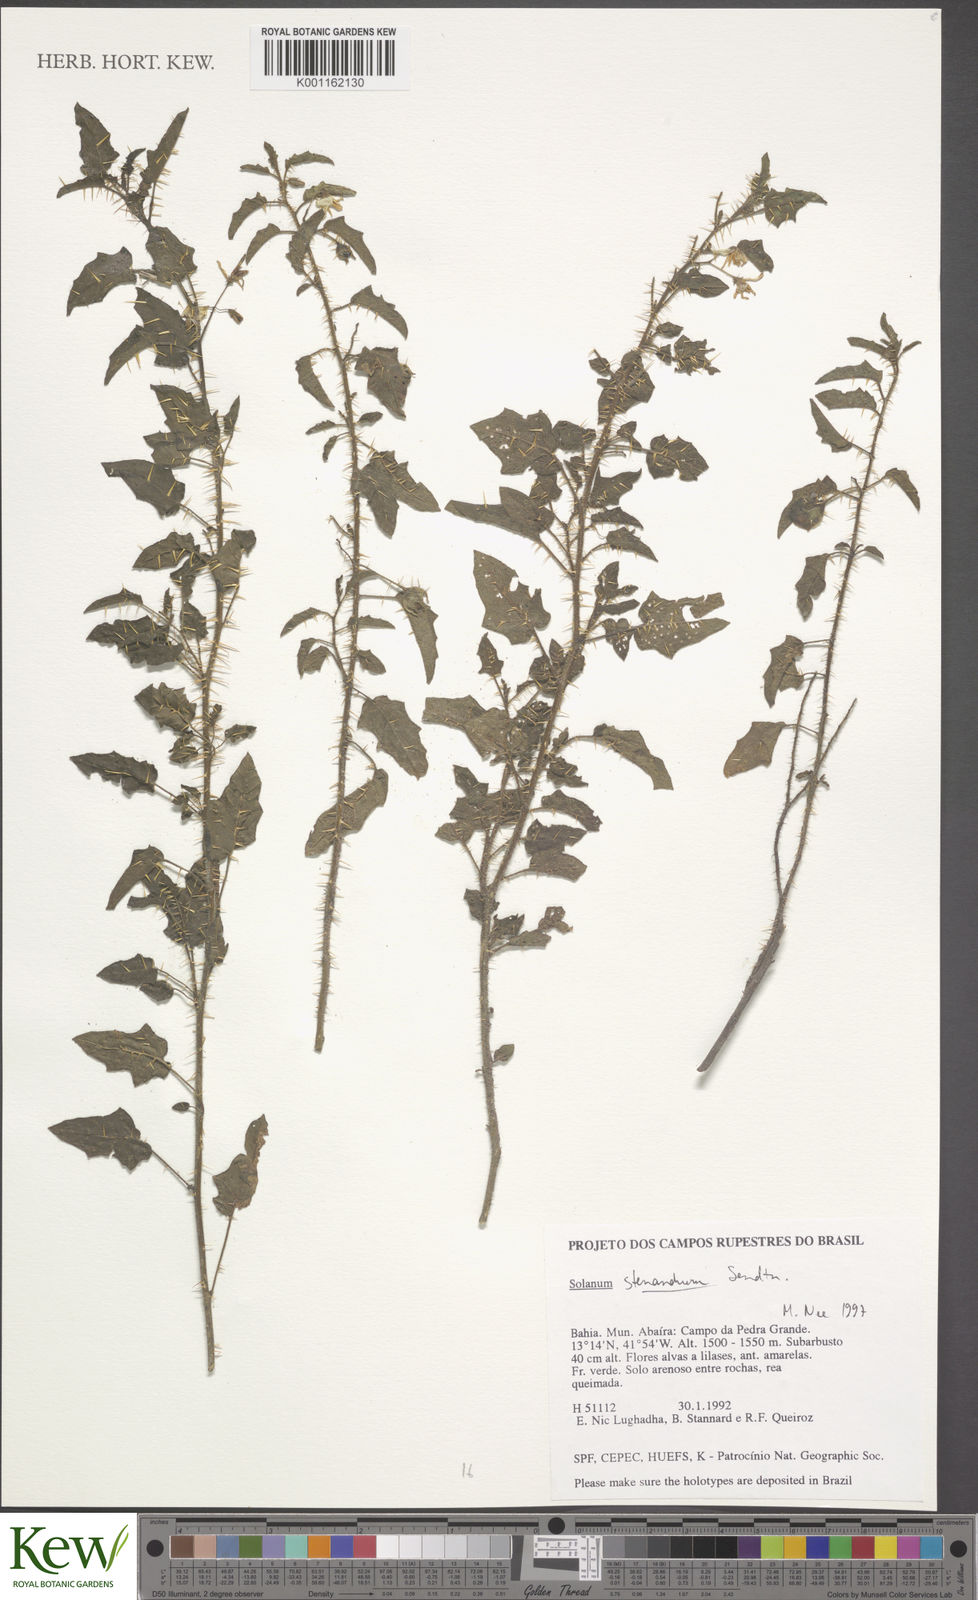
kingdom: Plantae
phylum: Tracheophyta
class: Magnoliopsida
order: Solanales
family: Solanaceae
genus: Solanum
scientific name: Solanum stenandrum
